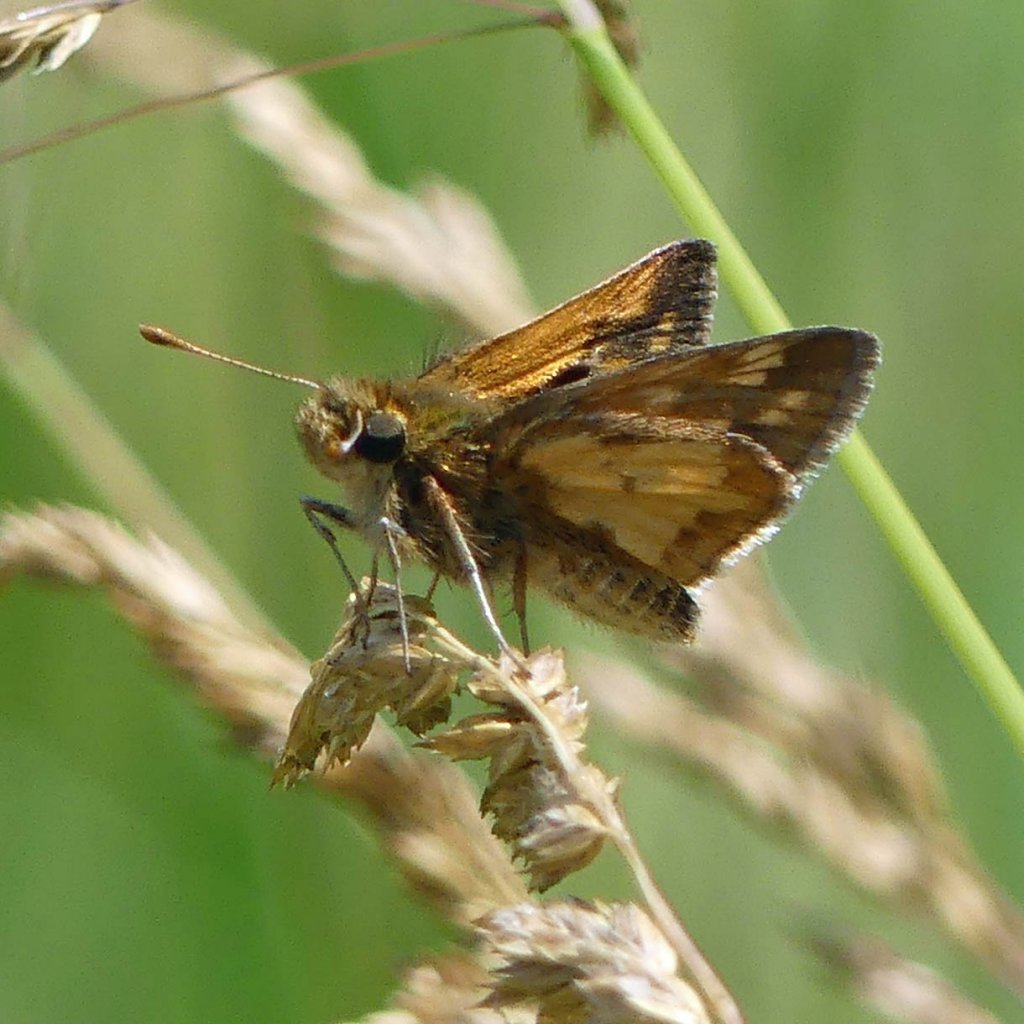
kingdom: Animalia
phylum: Arthropoda
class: Insecta
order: Lepidoptera
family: Hesperiidae
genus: Polites
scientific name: Polites coras
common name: Peck's Skipper
